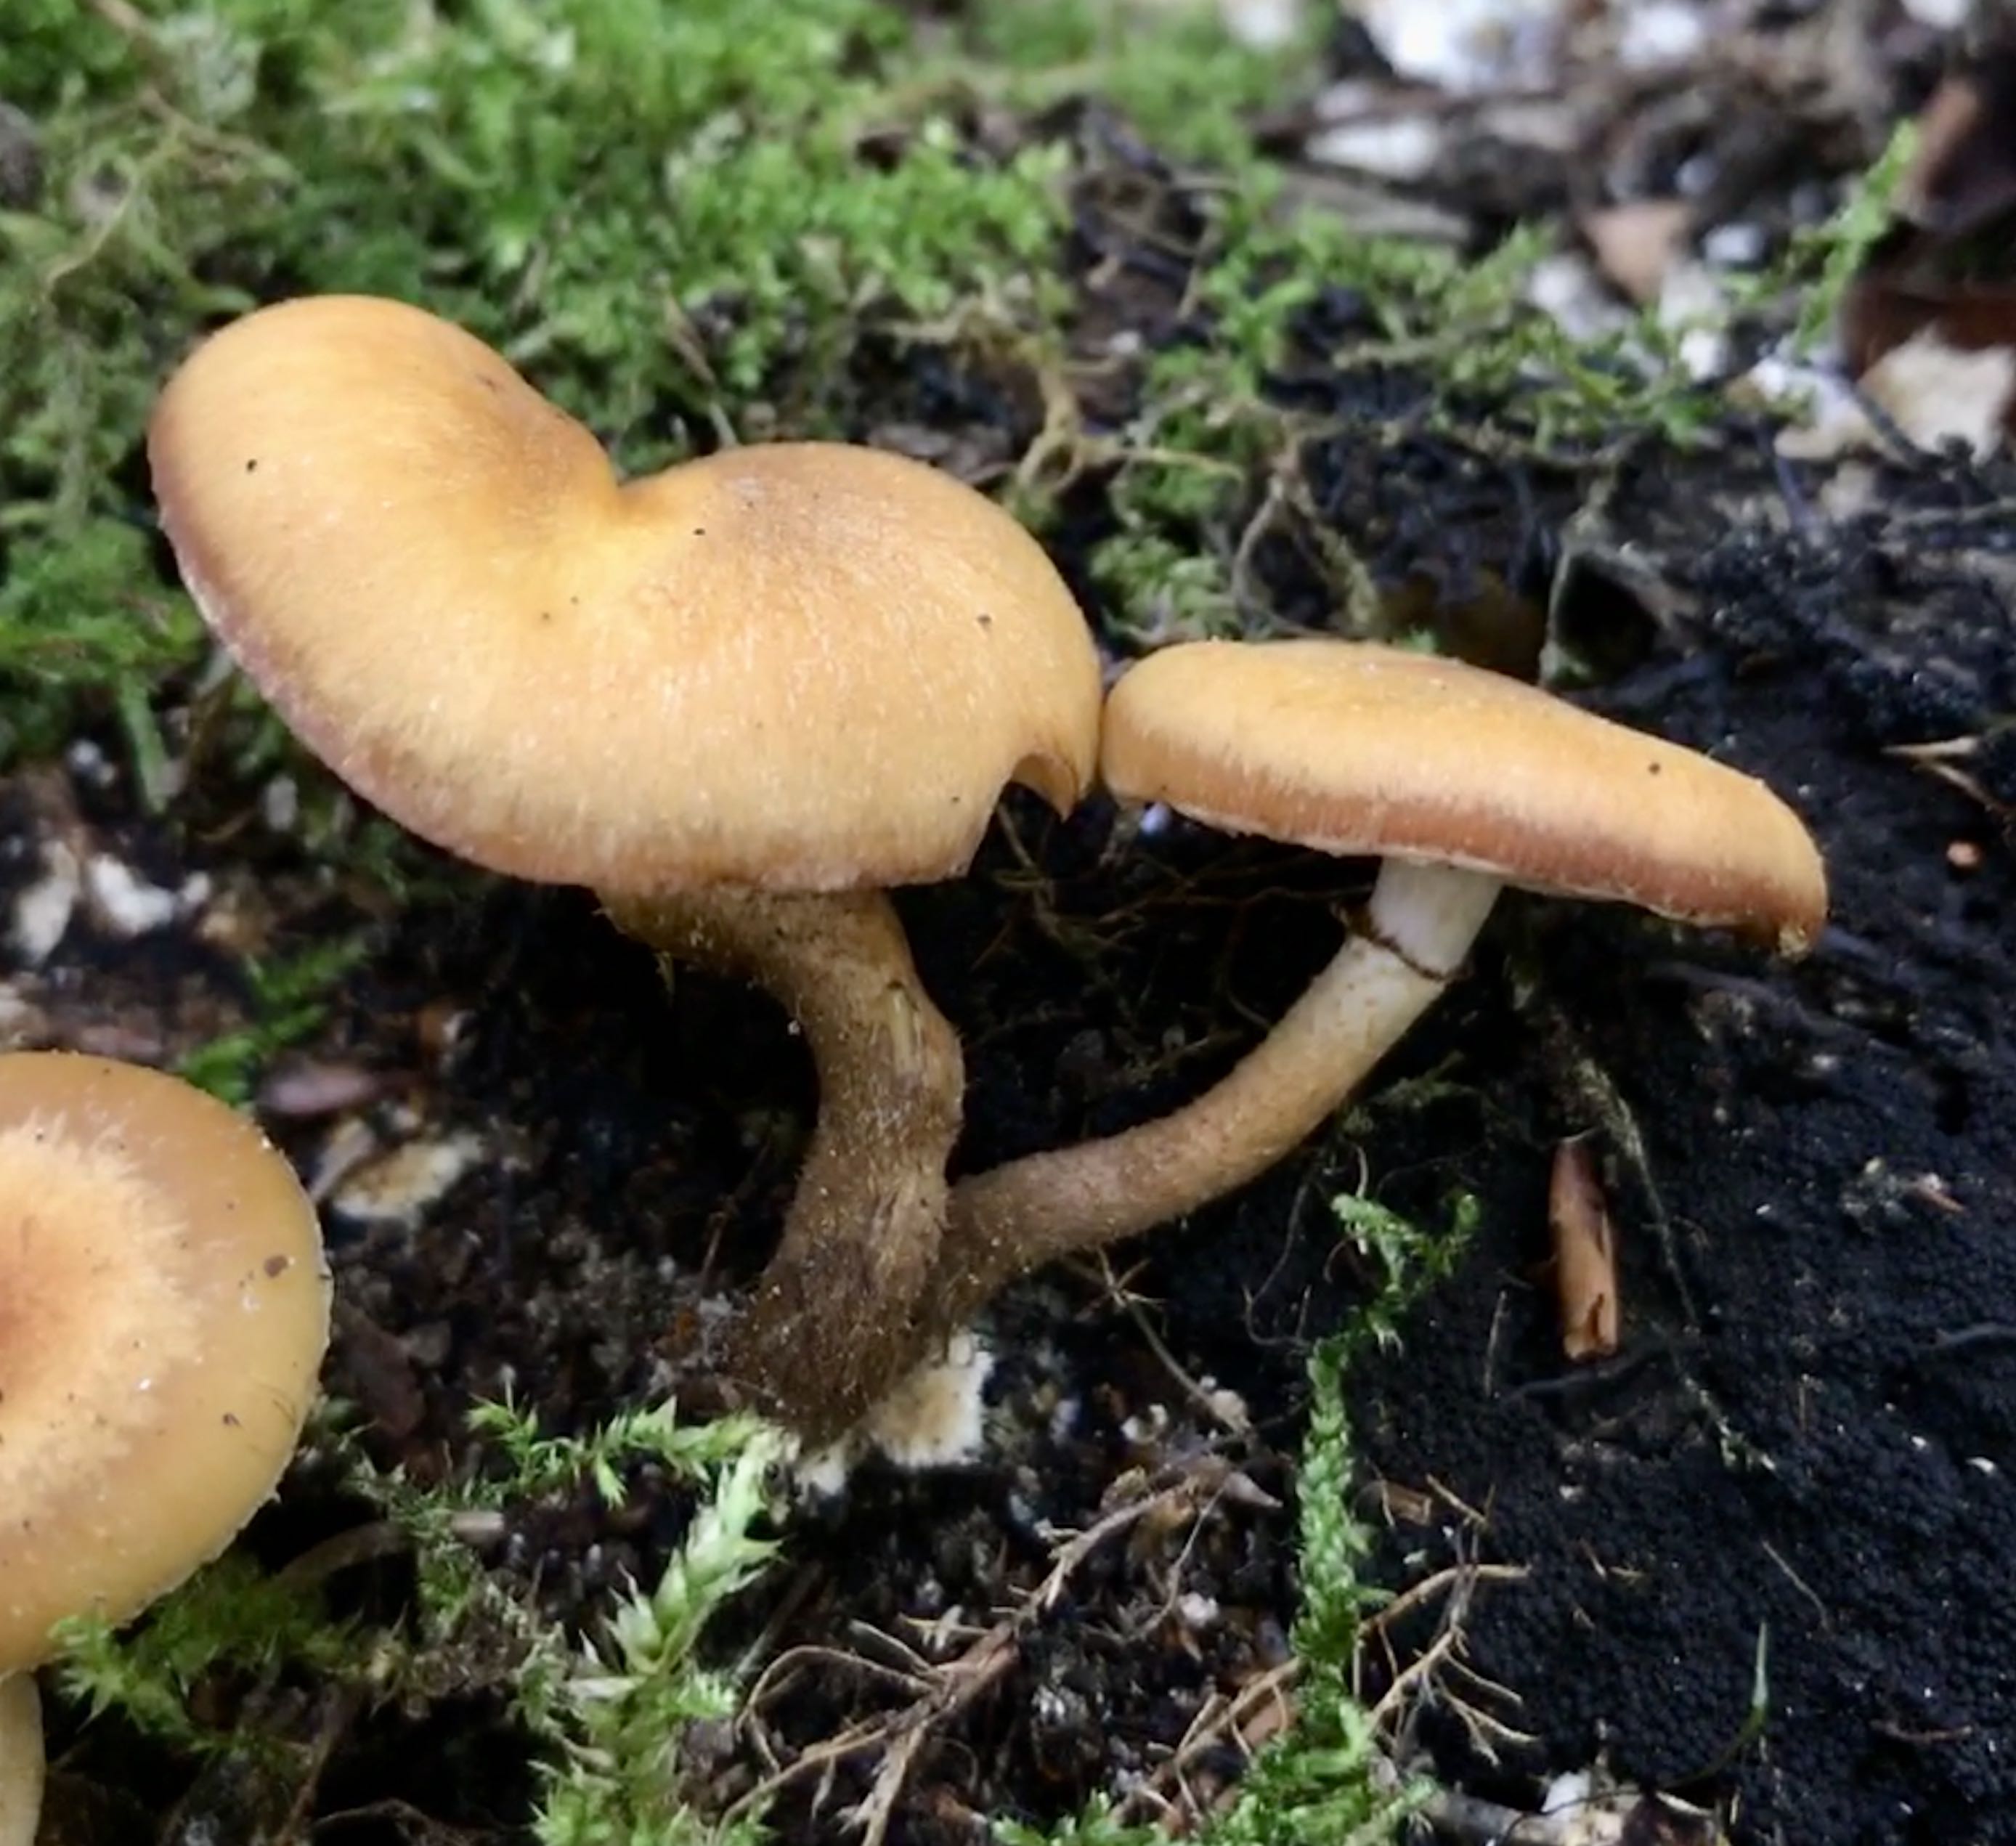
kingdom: Fungi
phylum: Basidiomycota
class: Agaricomycetes
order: Agaricales
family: Strophariaceae
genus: Kuehneromyces
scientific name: Kuehneromyces mutabilis
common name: foranderlig skælhat
